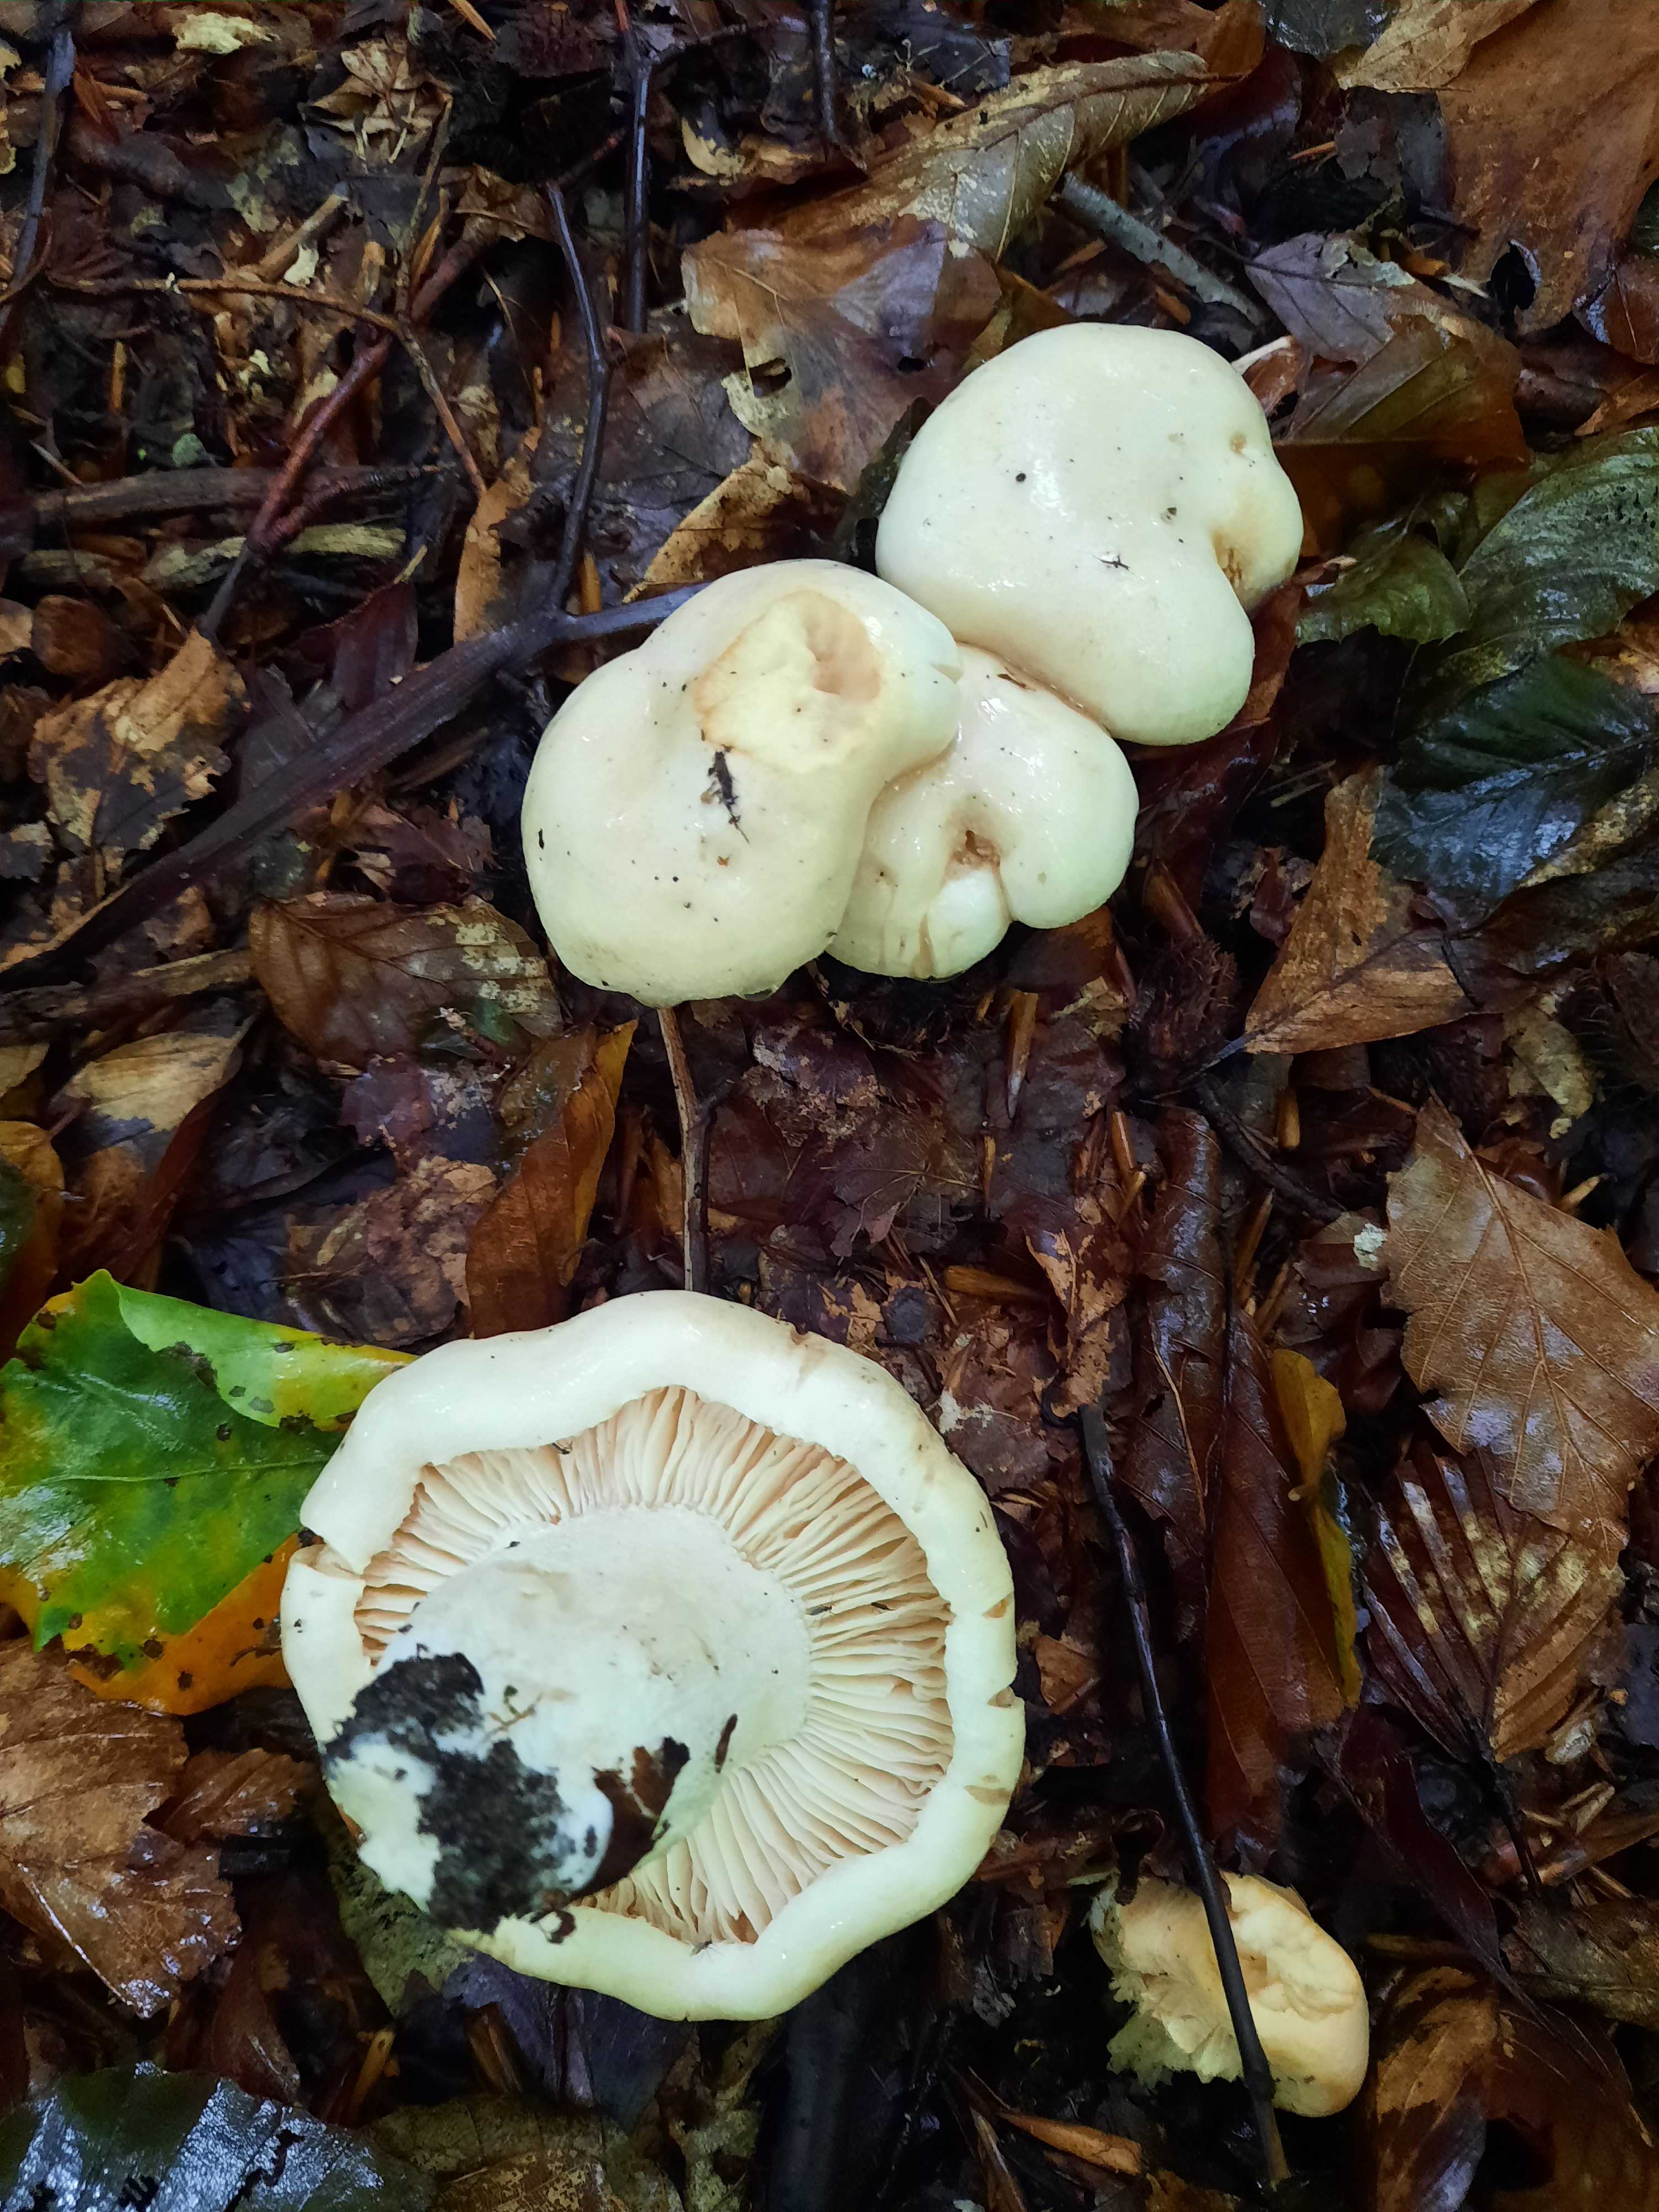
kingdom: Fungi
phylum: Basidiomycota
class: Agaricomycetes
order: Russulales
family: Russulaceae
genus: Lactifluus
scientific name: Lactifluus piperatus
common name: peber-mælkehat
